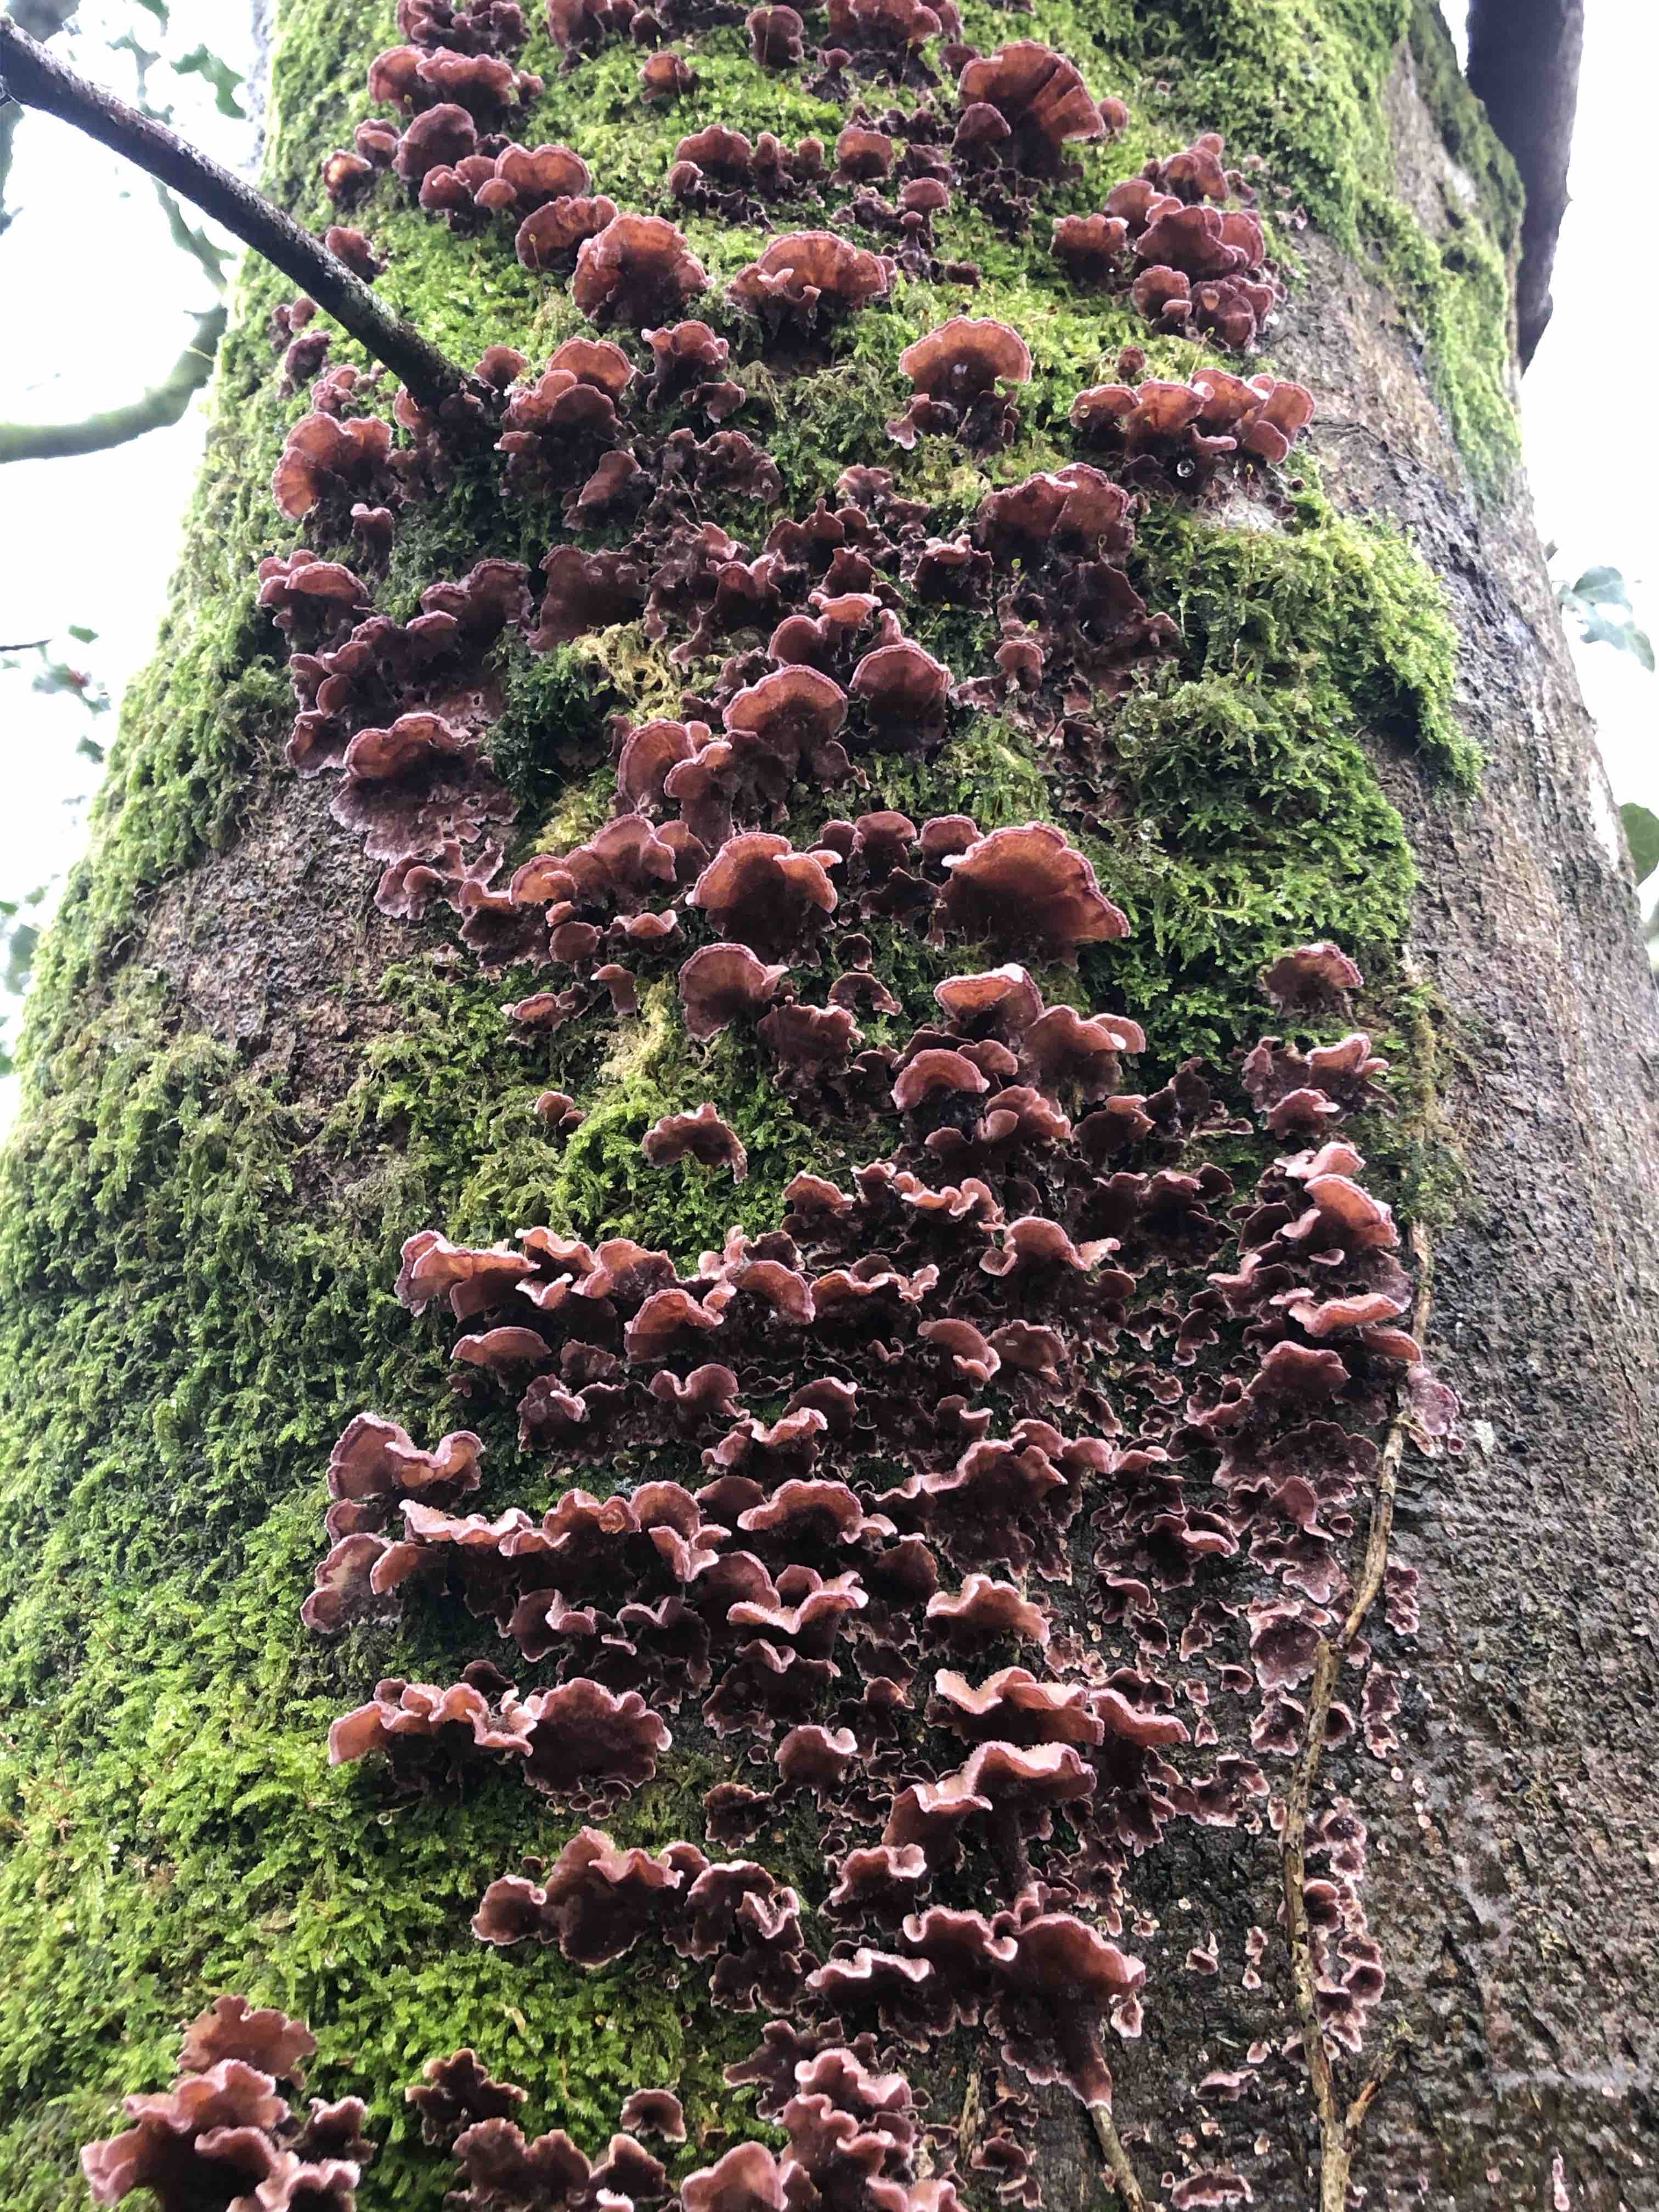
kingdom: Fungi
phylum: Basidiomycota
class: Agaricomycetes
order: Agaricales
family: Cyphellaceae
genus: Chondrostereum
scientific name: Chondrostereum purpureum
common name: purpurlædersvamp
